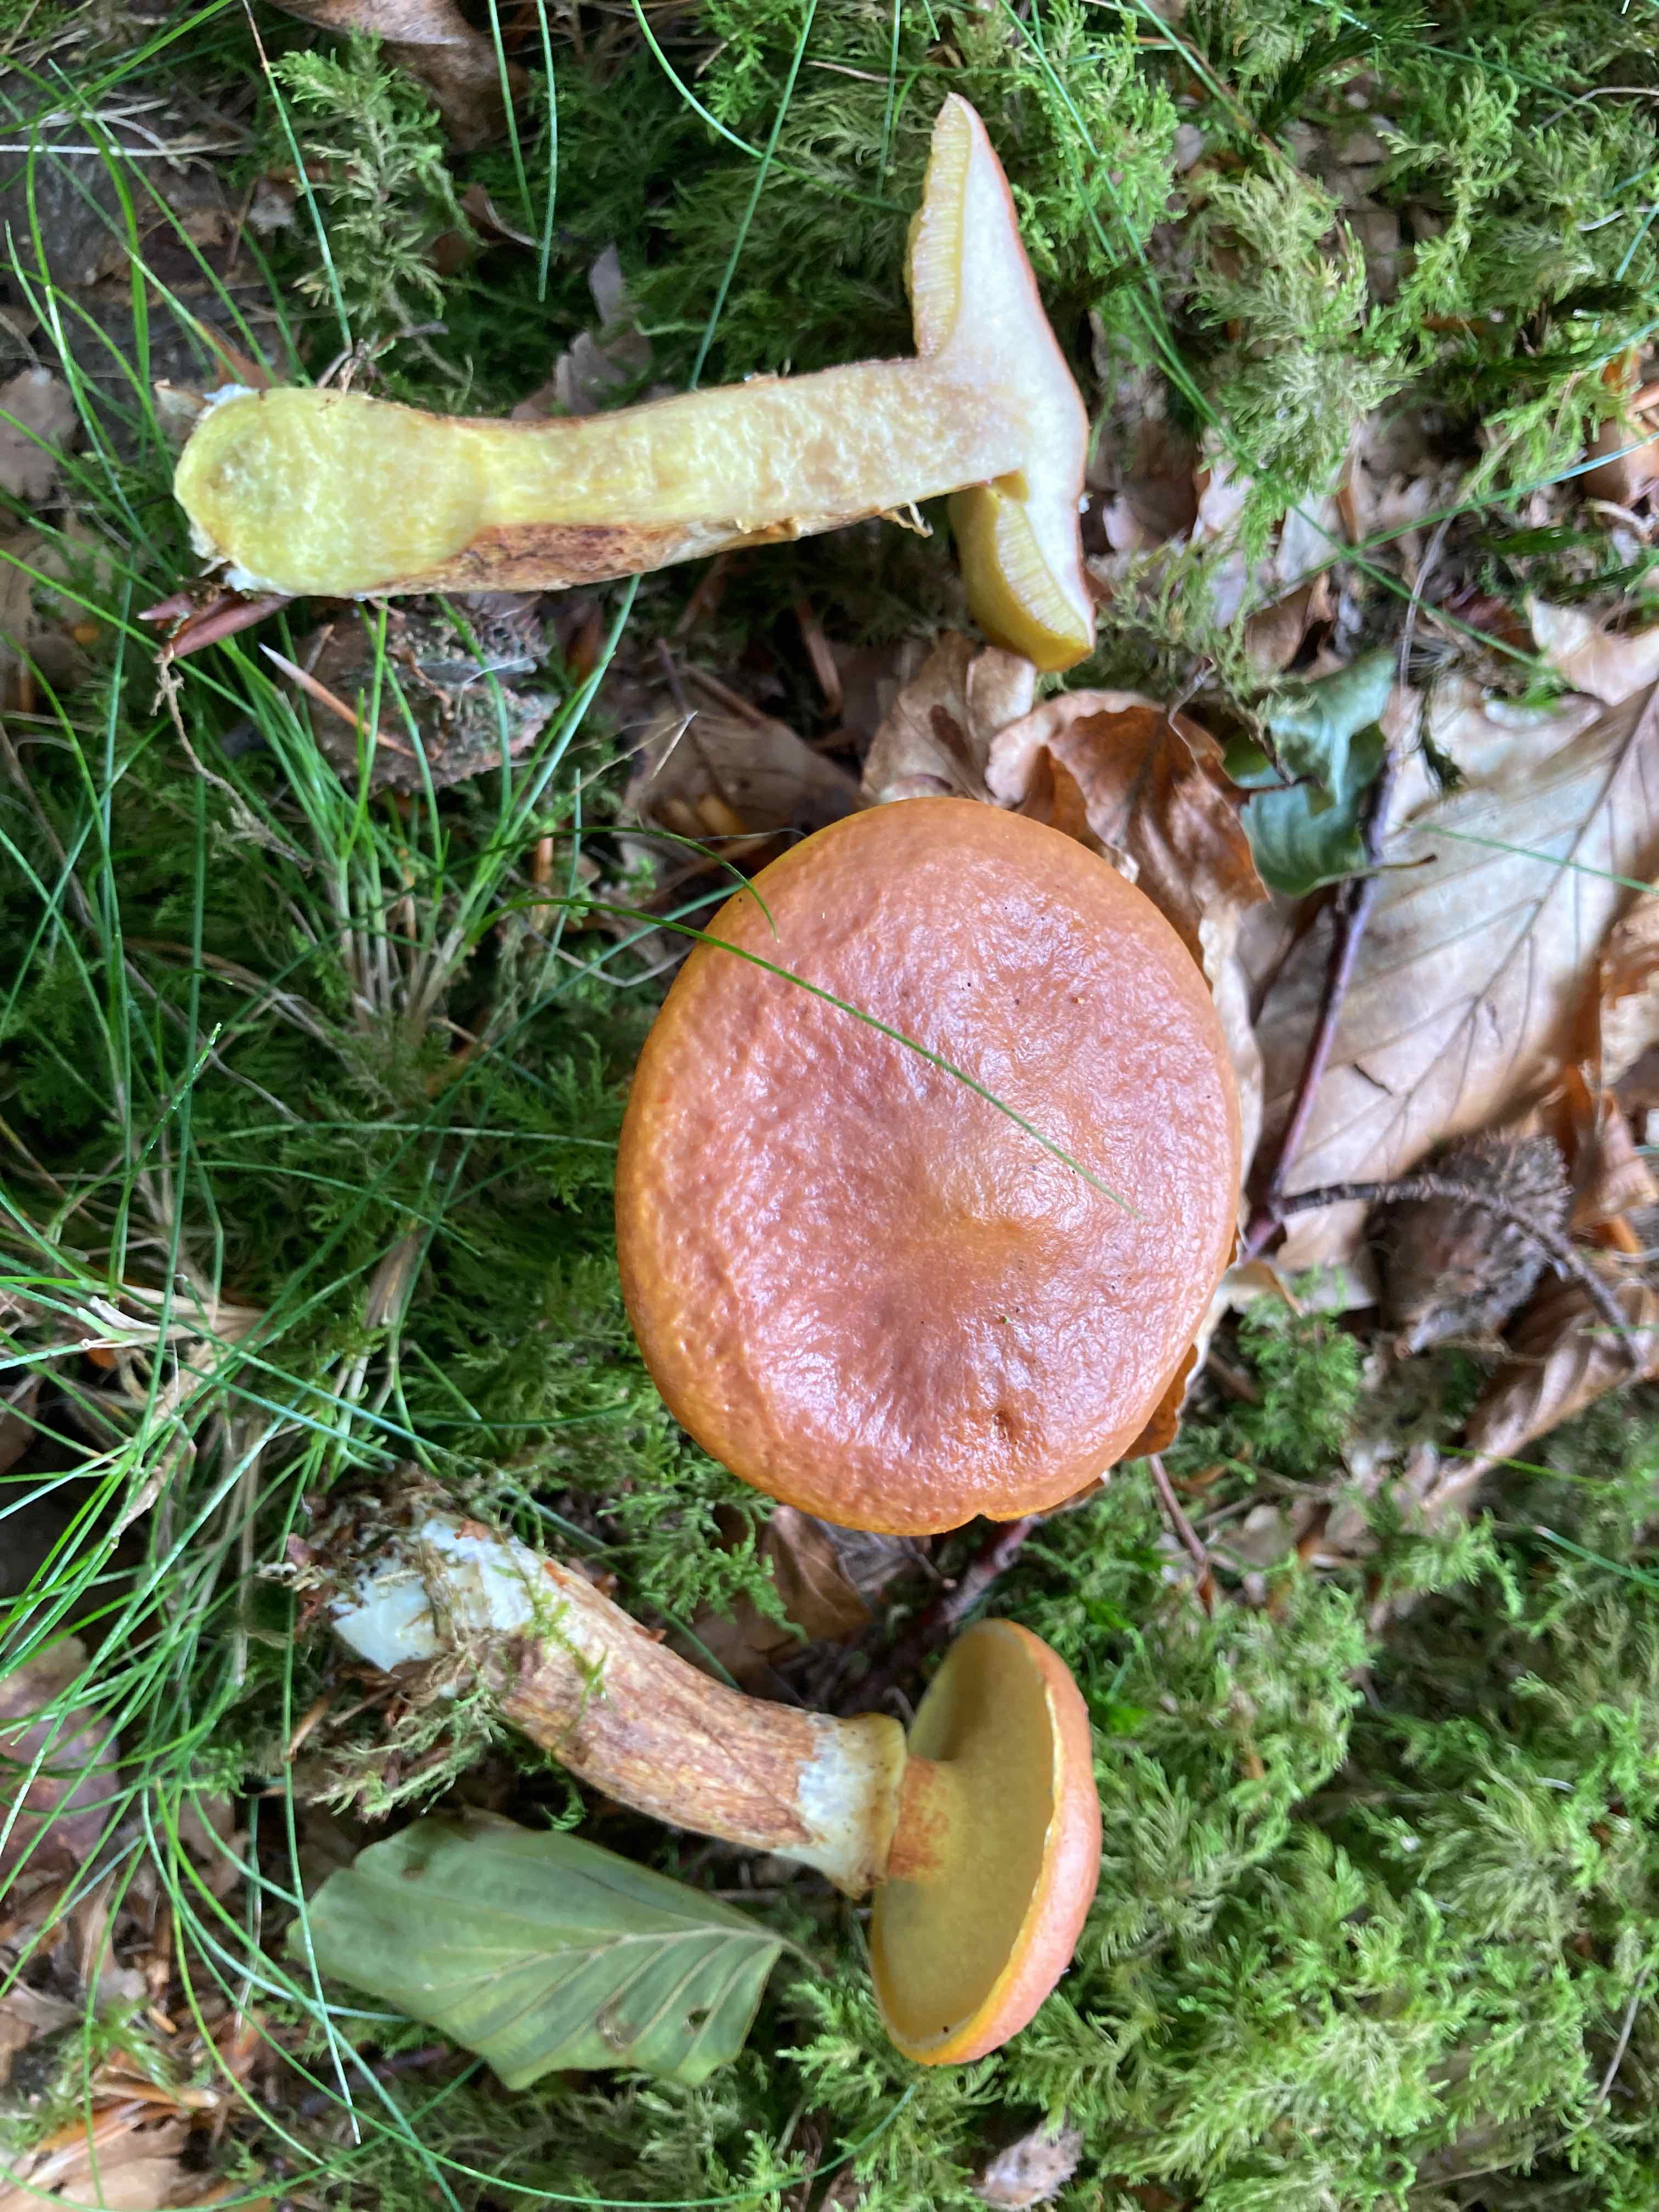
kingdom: Fungi
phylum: Basidiomycota
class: Agaricomycetes
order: Boletales
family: Suillaceae
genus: Suillus
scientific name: Suillus grevillei
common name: lærke-slimrørhat
